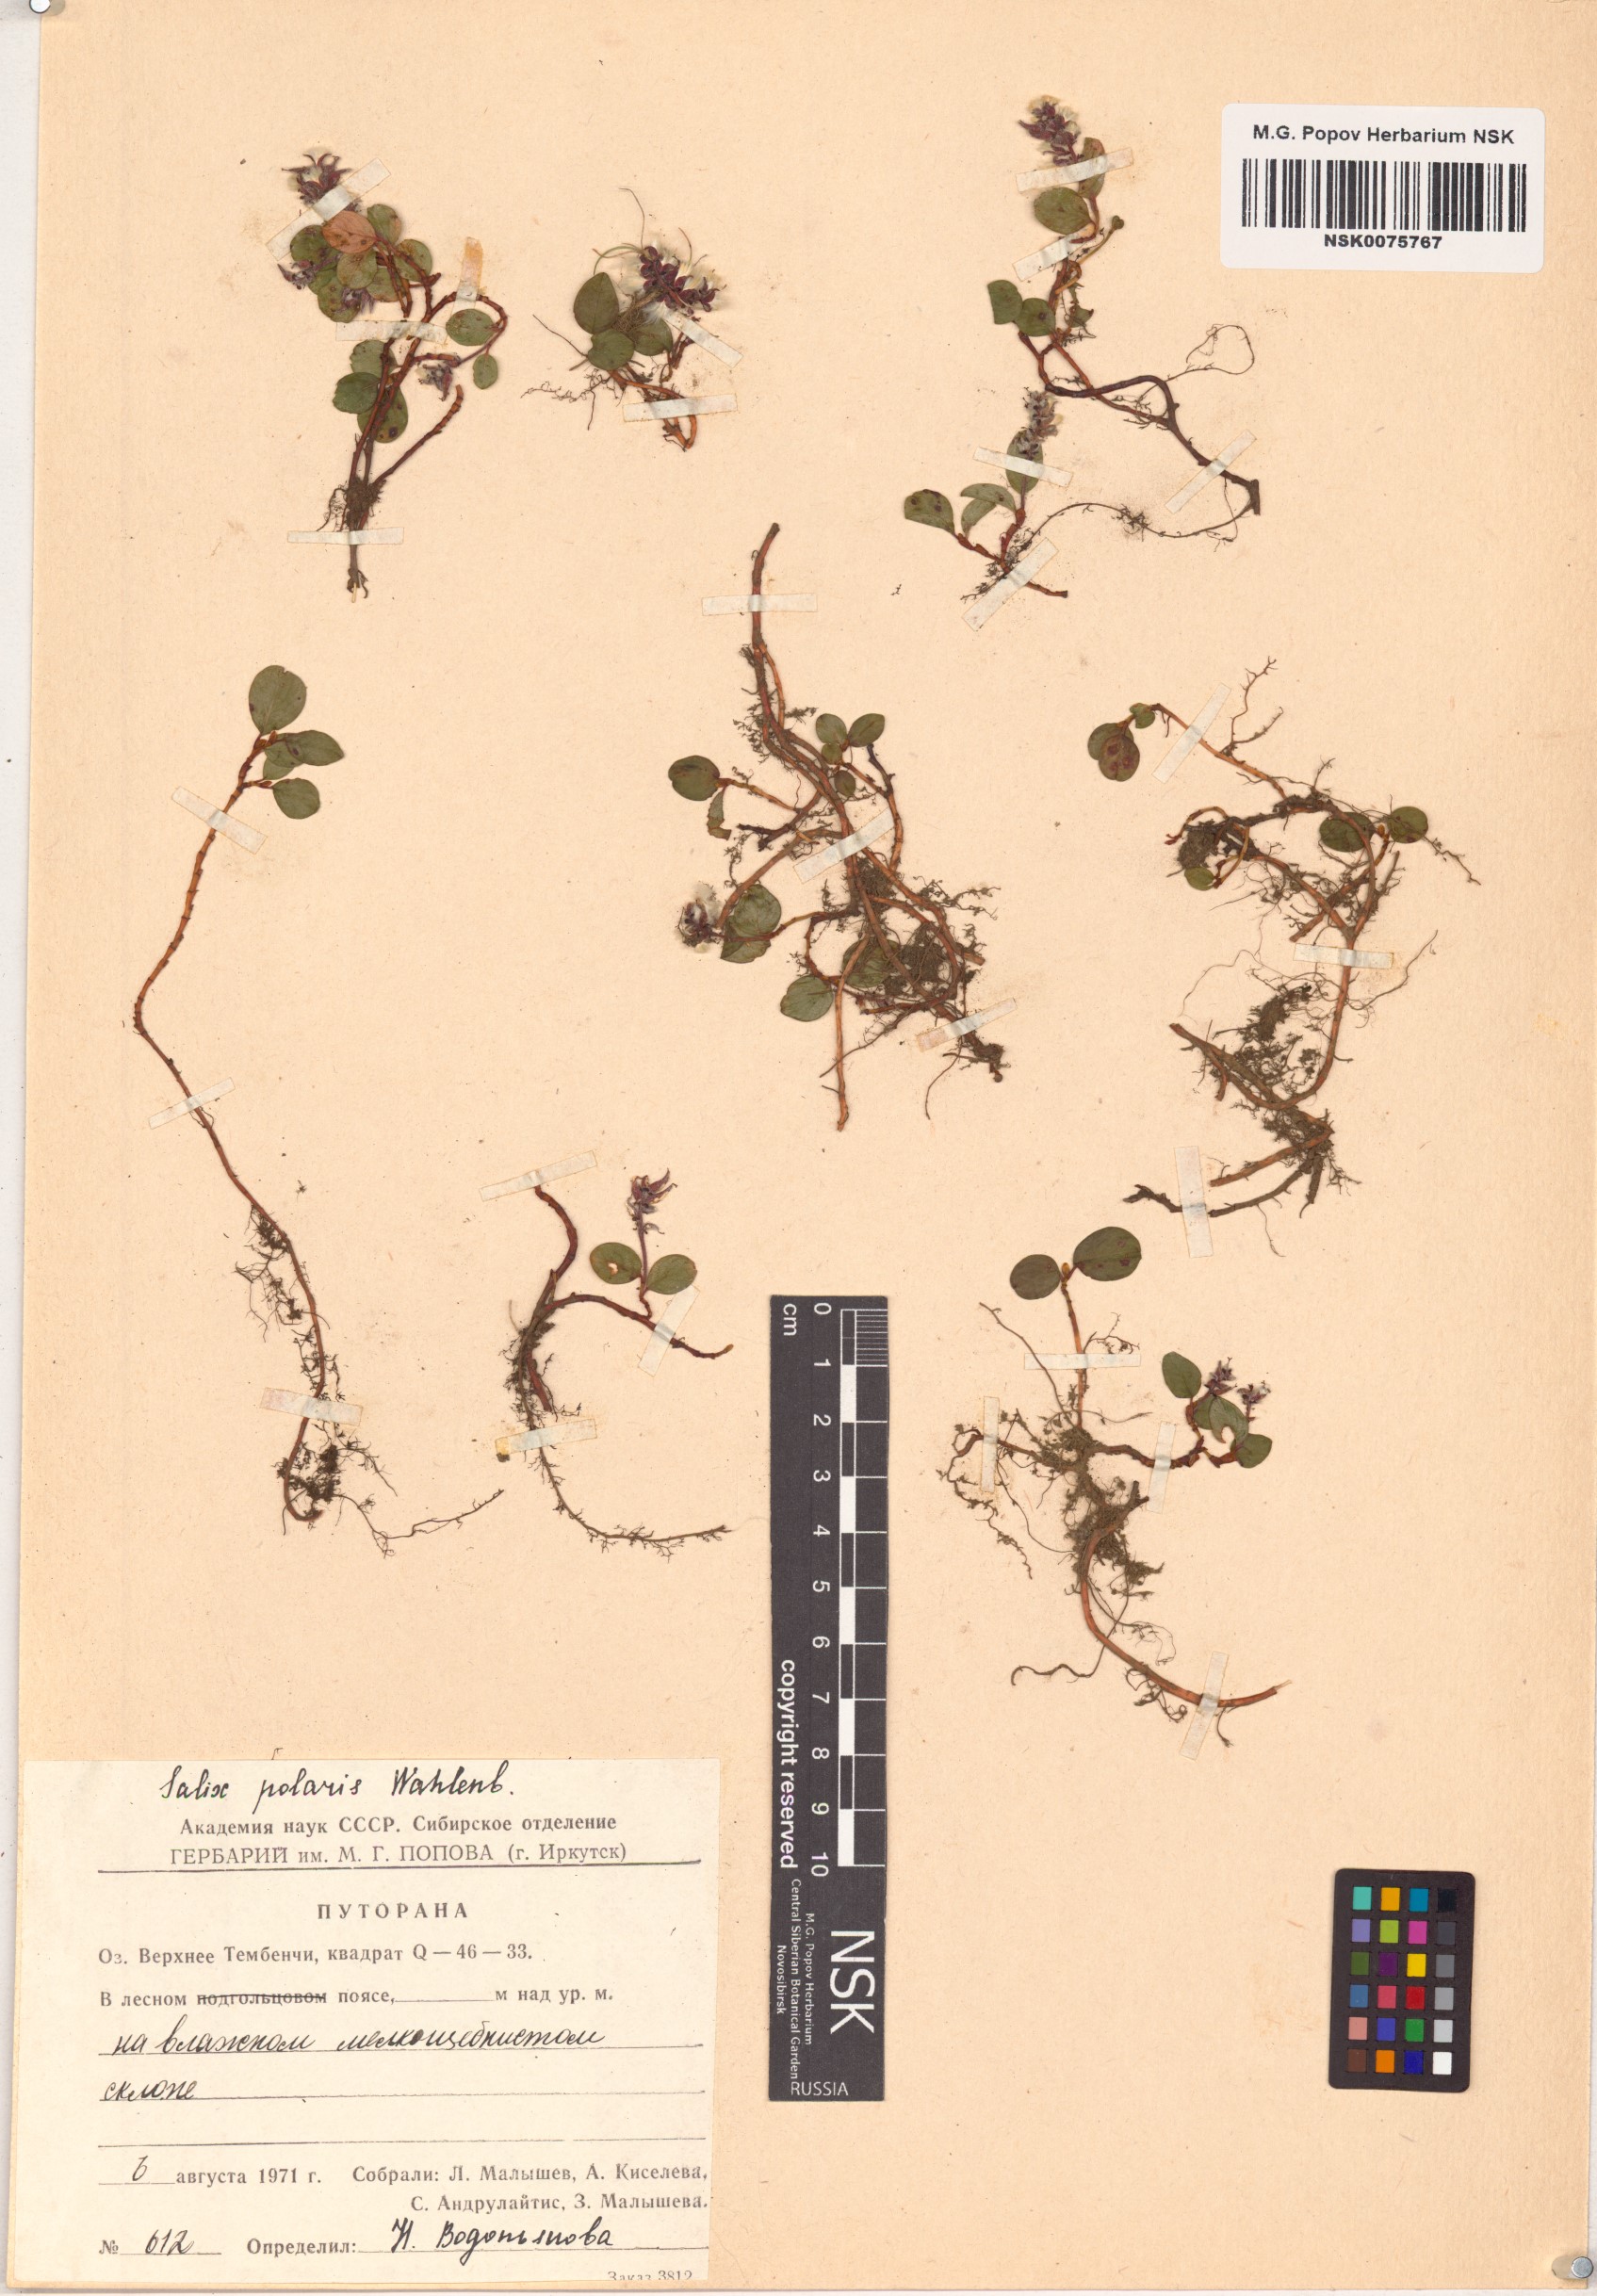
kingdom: Plantae
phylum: Tracheophyta
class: Magnoliopsida
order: Malpighiales
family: Salicaceae
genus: Salix
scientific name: Salix polaris
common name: Polar willow
